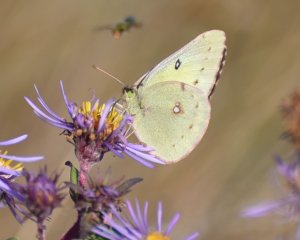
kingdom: Animalia
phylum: Arthropoda
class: Insecta
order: Lepidoptera
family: Pieridae
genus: Colias
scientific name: Colias philodice
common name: Clouded Sulphur
